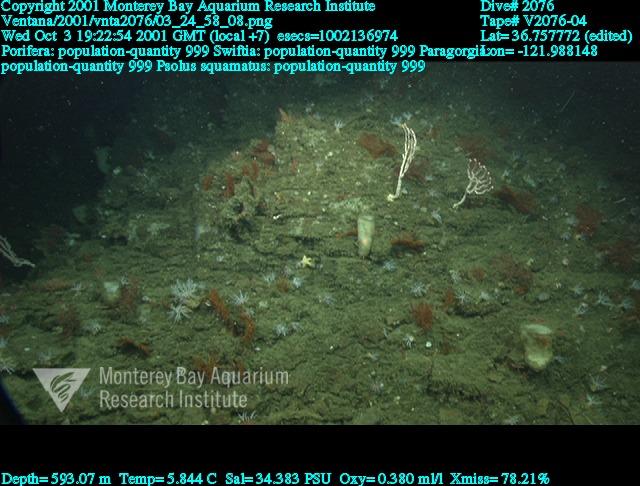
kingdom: Animalia
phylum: Porifera
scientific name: Porifera
